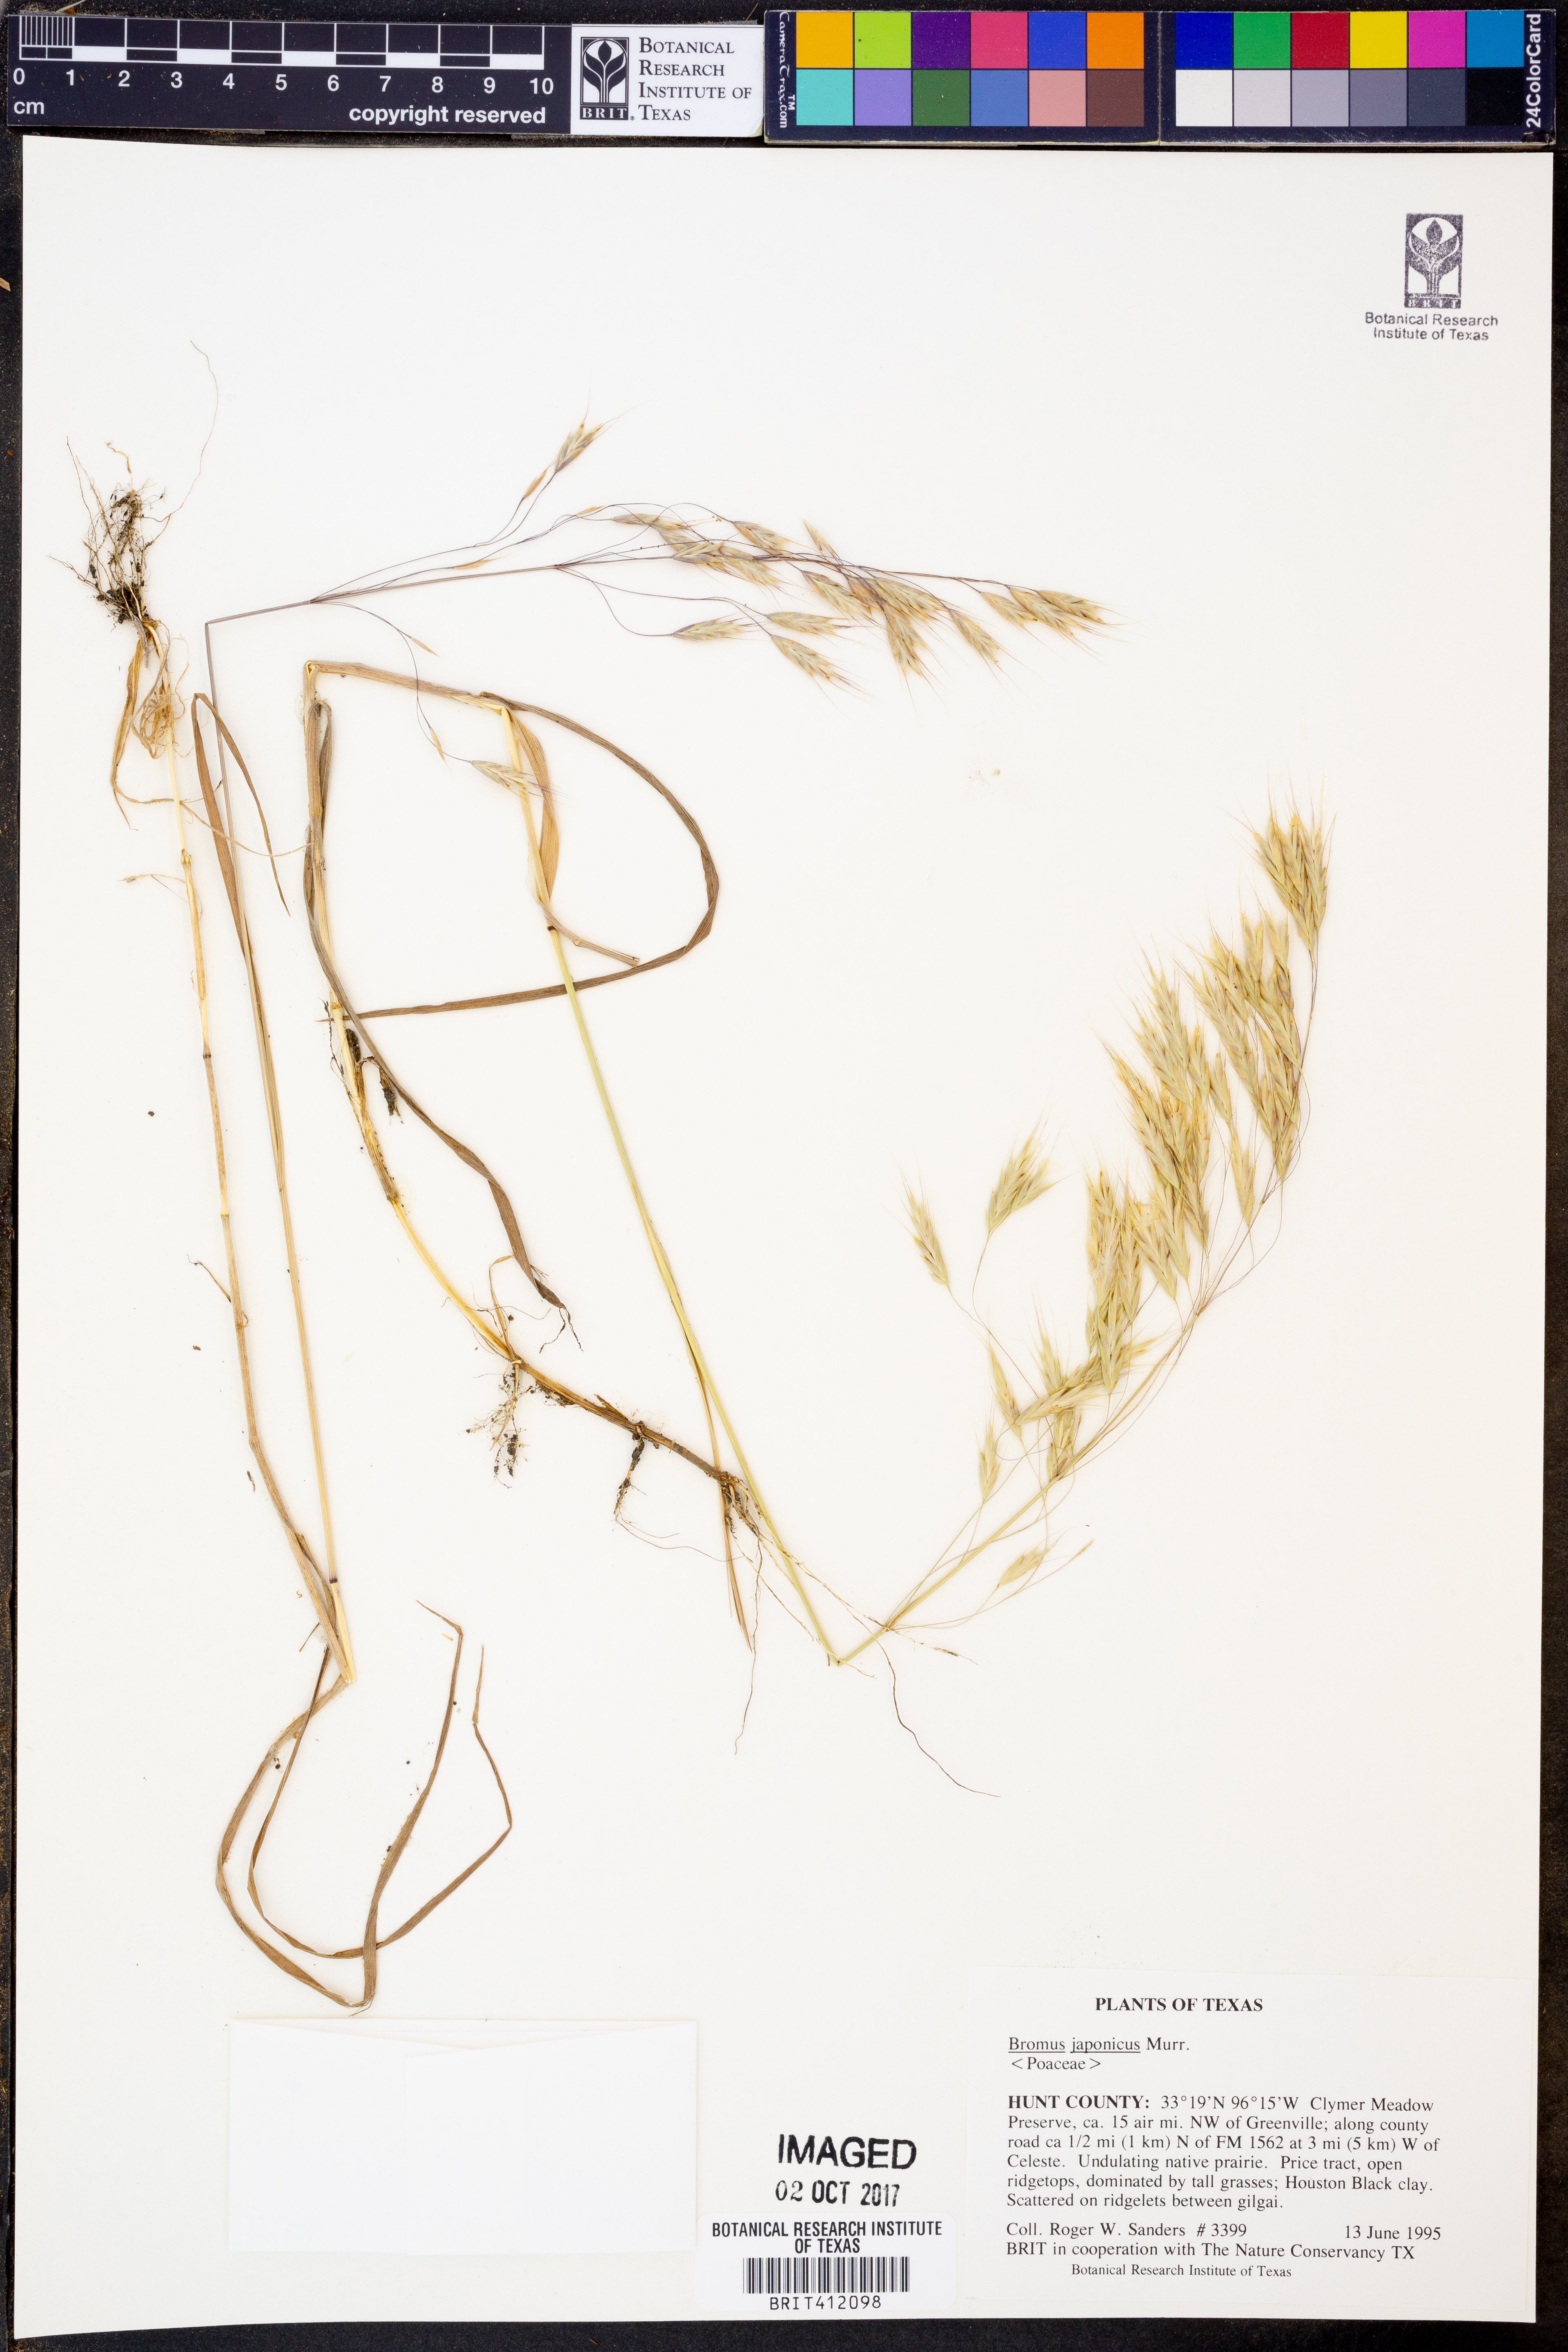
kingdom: Plantae
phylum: Tracheophyta
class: Liliopsida
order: Poales
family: Poaceae
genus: Bromus
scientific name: Bromus japonicus
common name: Japanese brome
